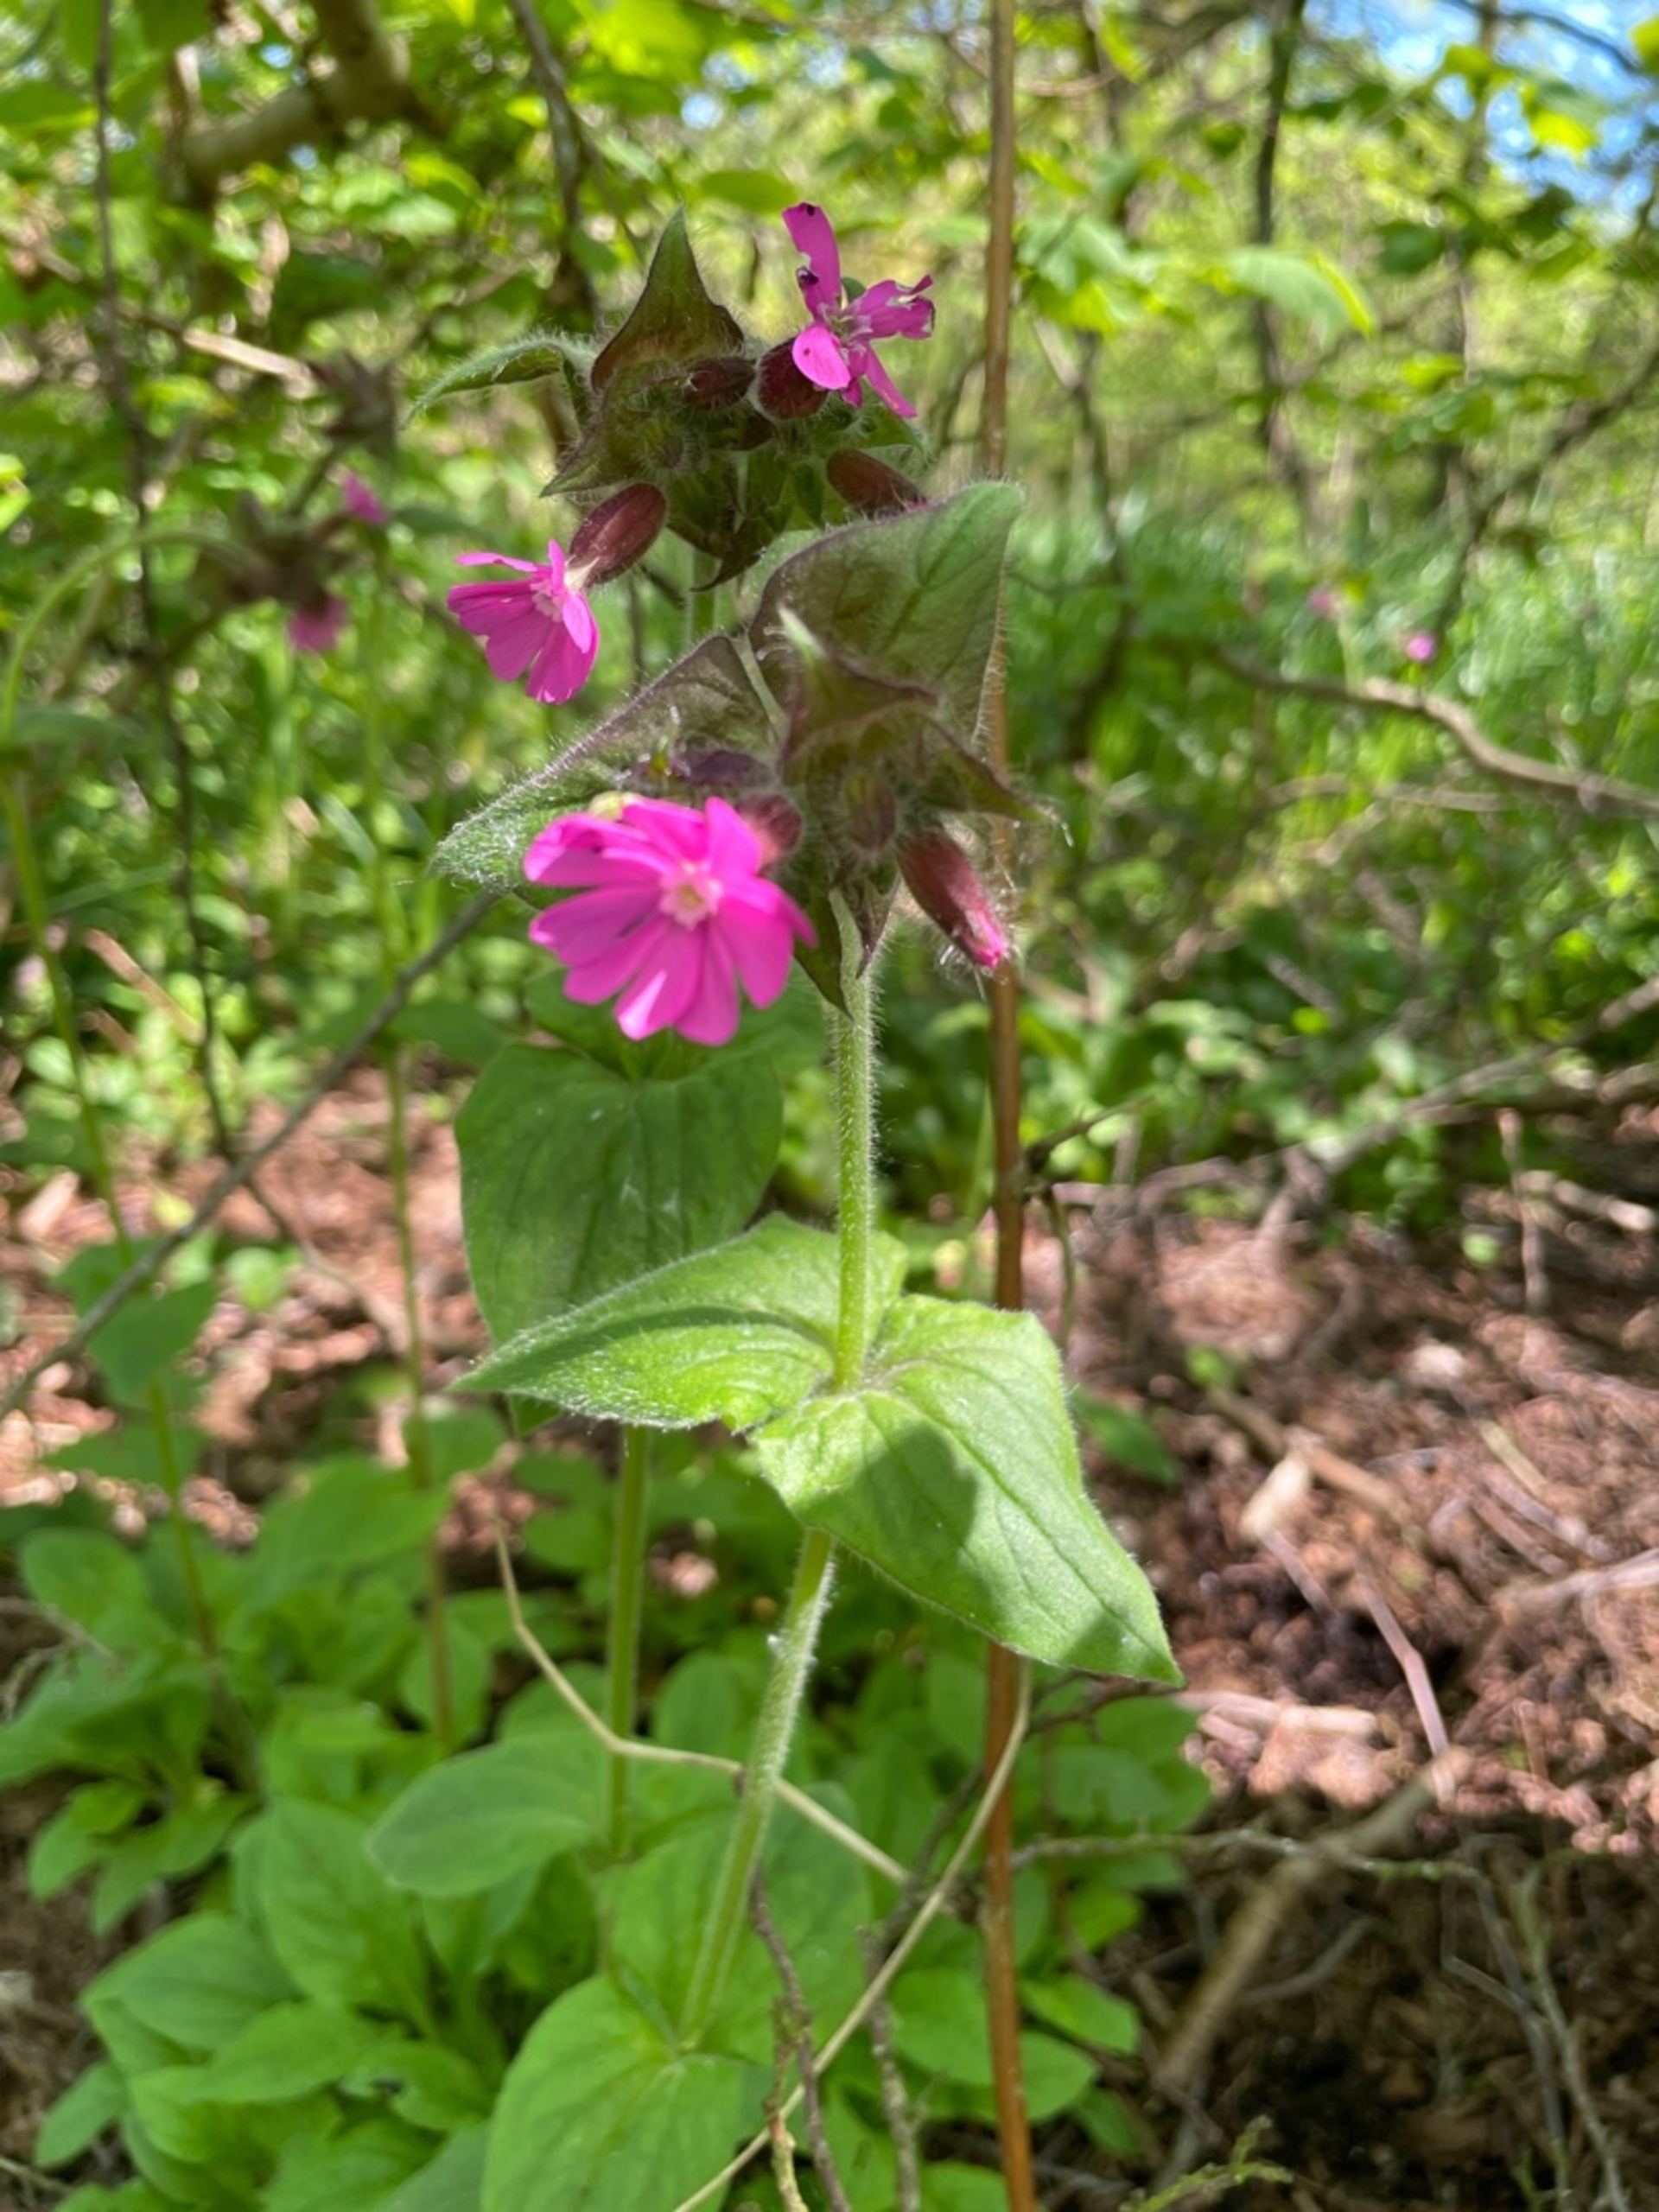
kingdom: Plantae
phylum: Tracheophyta
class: Magnoliopsida
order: Caryophyllales
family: Caryophyllaceae
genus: Silene
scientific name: Silene dioica
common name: Dagpragtstjerne
